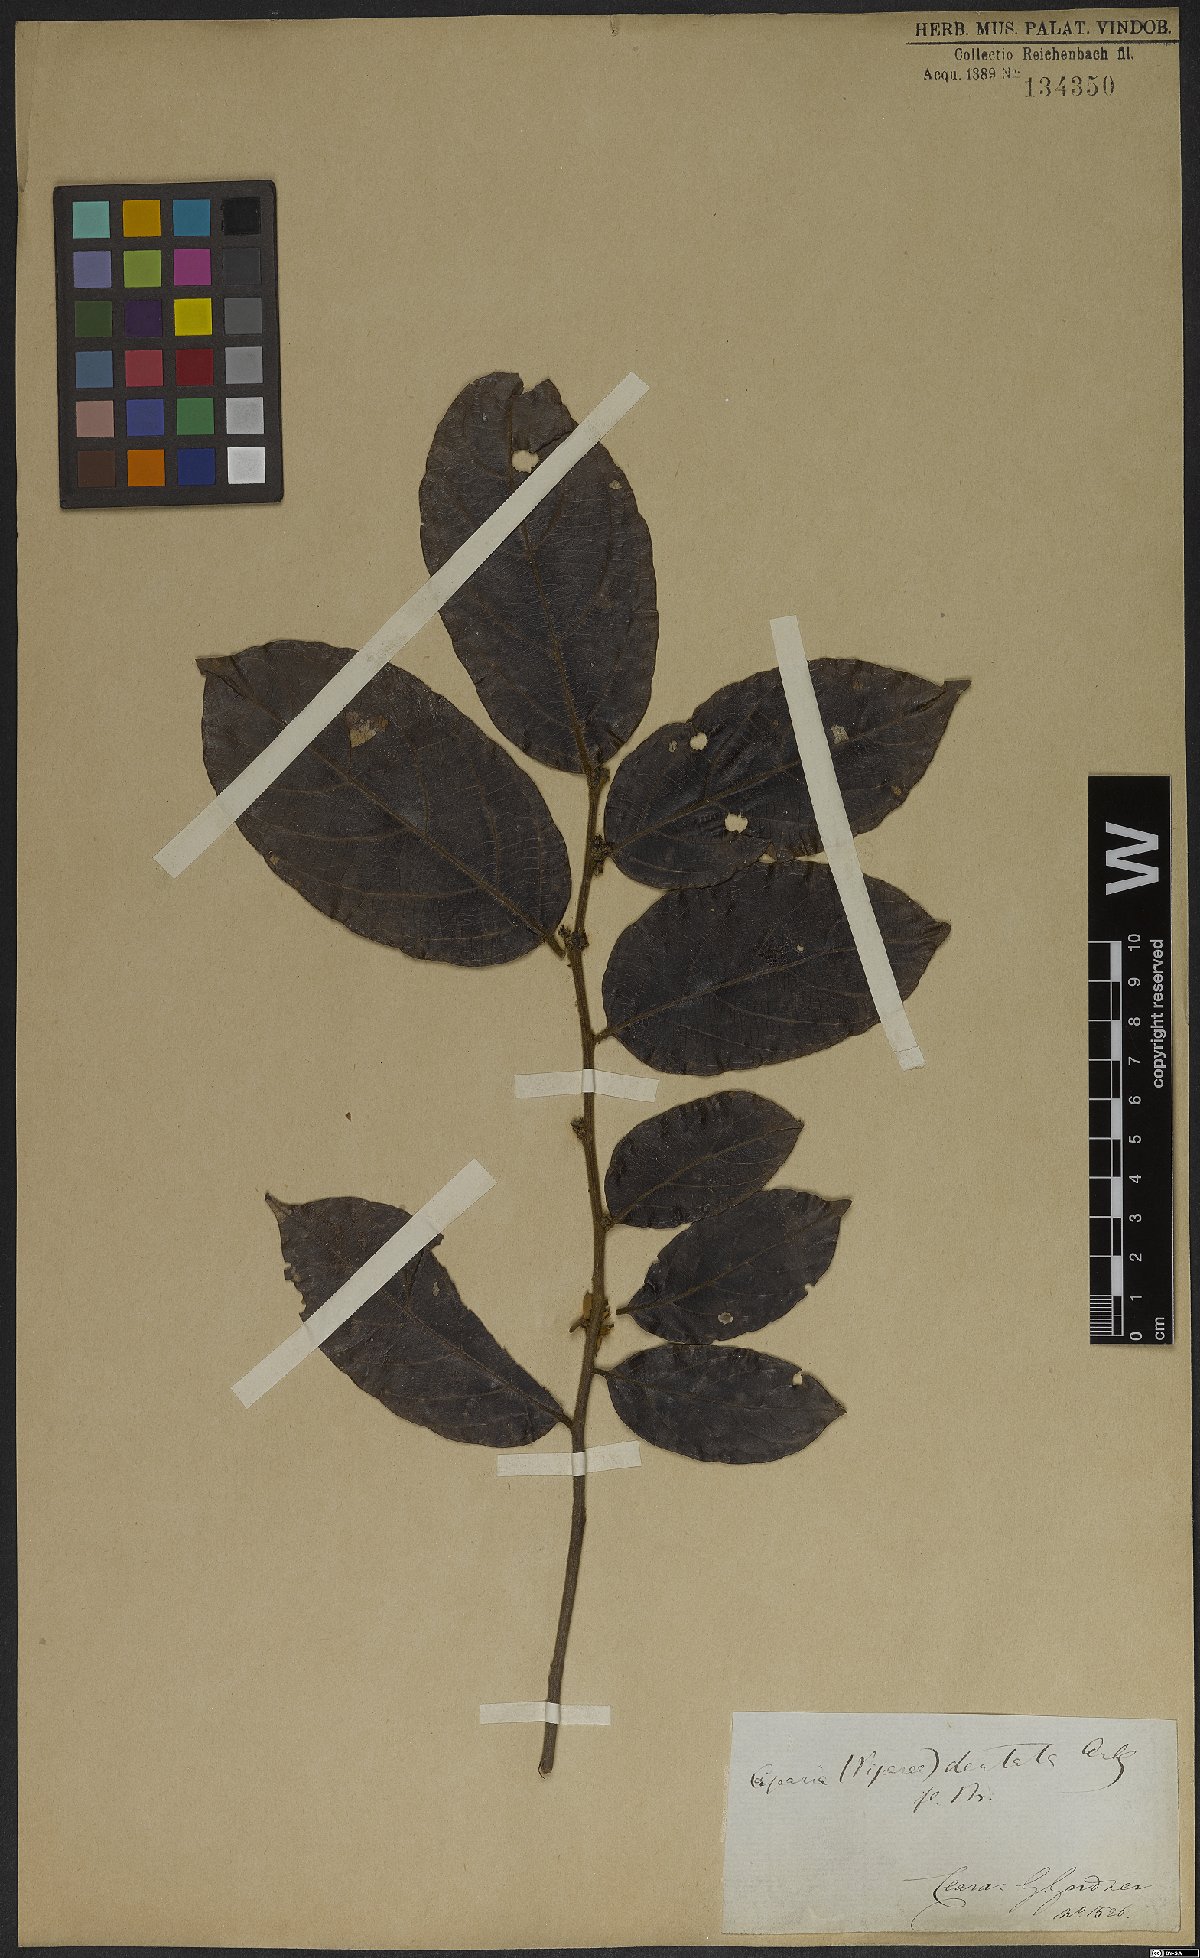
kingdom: Plantae
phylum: Tracheophyta
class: Magnoliopsida
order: Malpighiales
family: Salicaceae
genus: Piparea
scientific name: Piparea dentata
